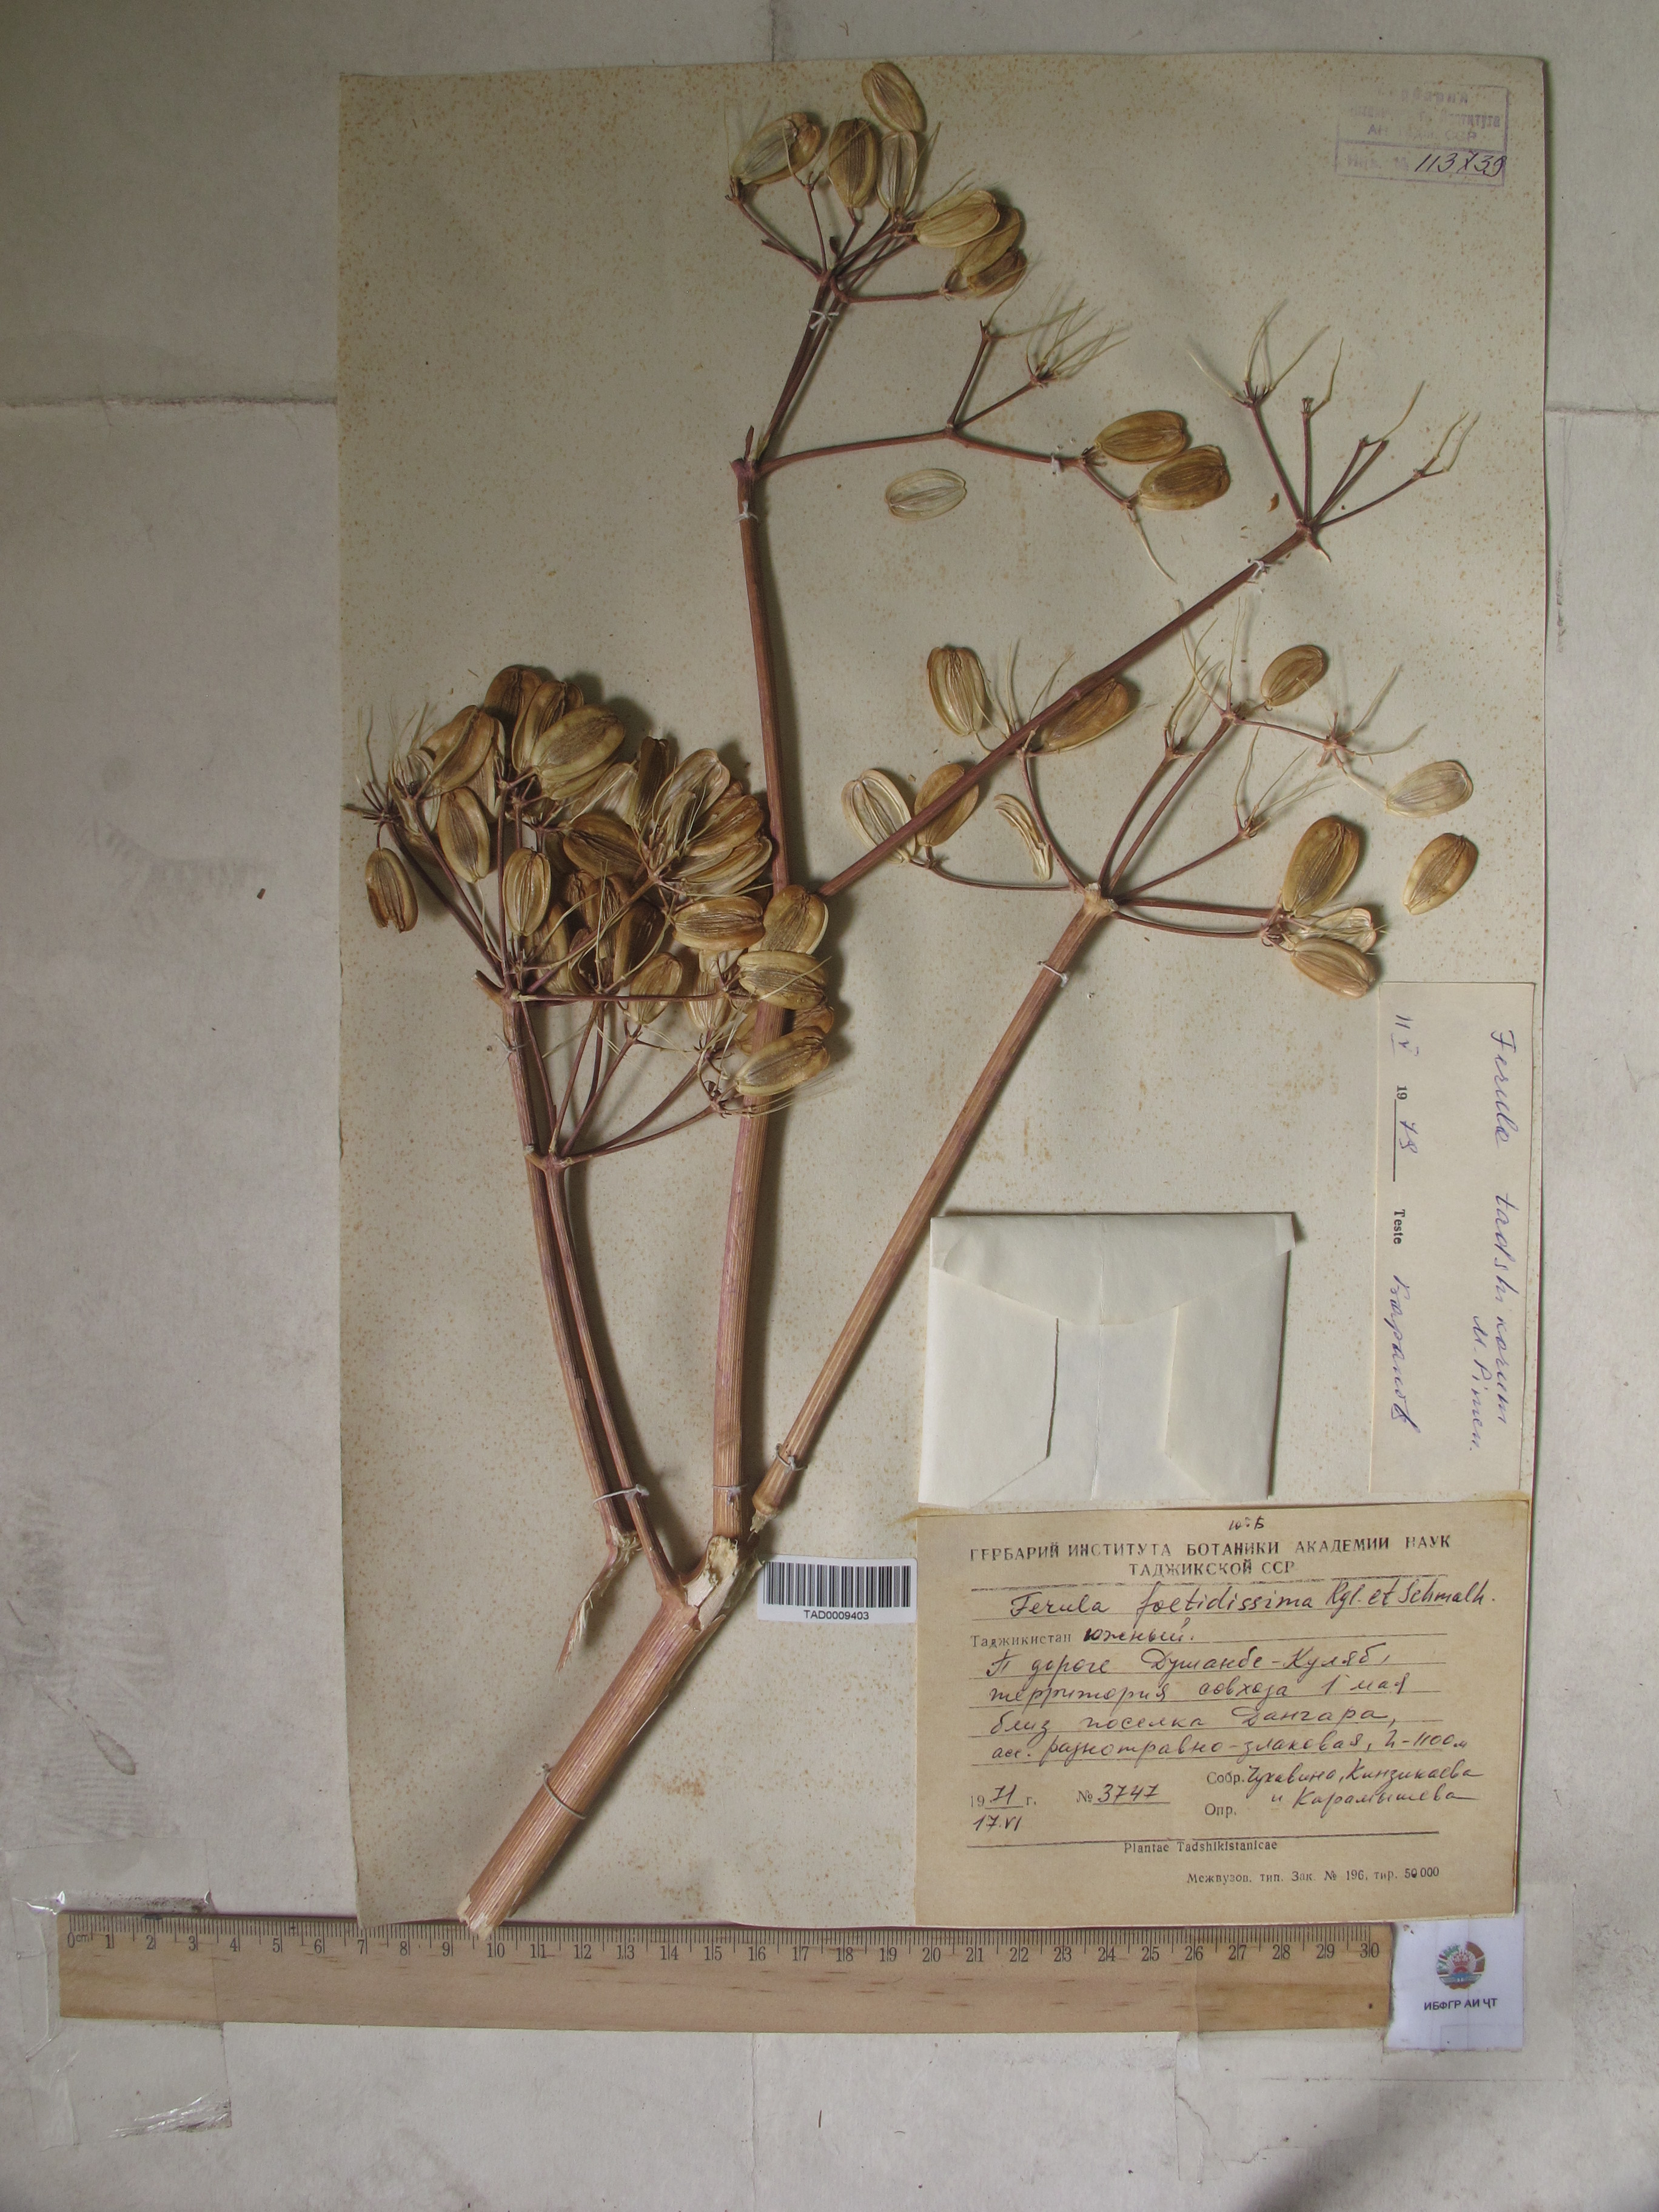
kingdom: Plantae
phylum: Tracheophyta
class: Magnoliopsida
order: Apiales
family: Apiaceae
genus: Ferula
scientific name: Ferula foetidissima
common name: Raba
